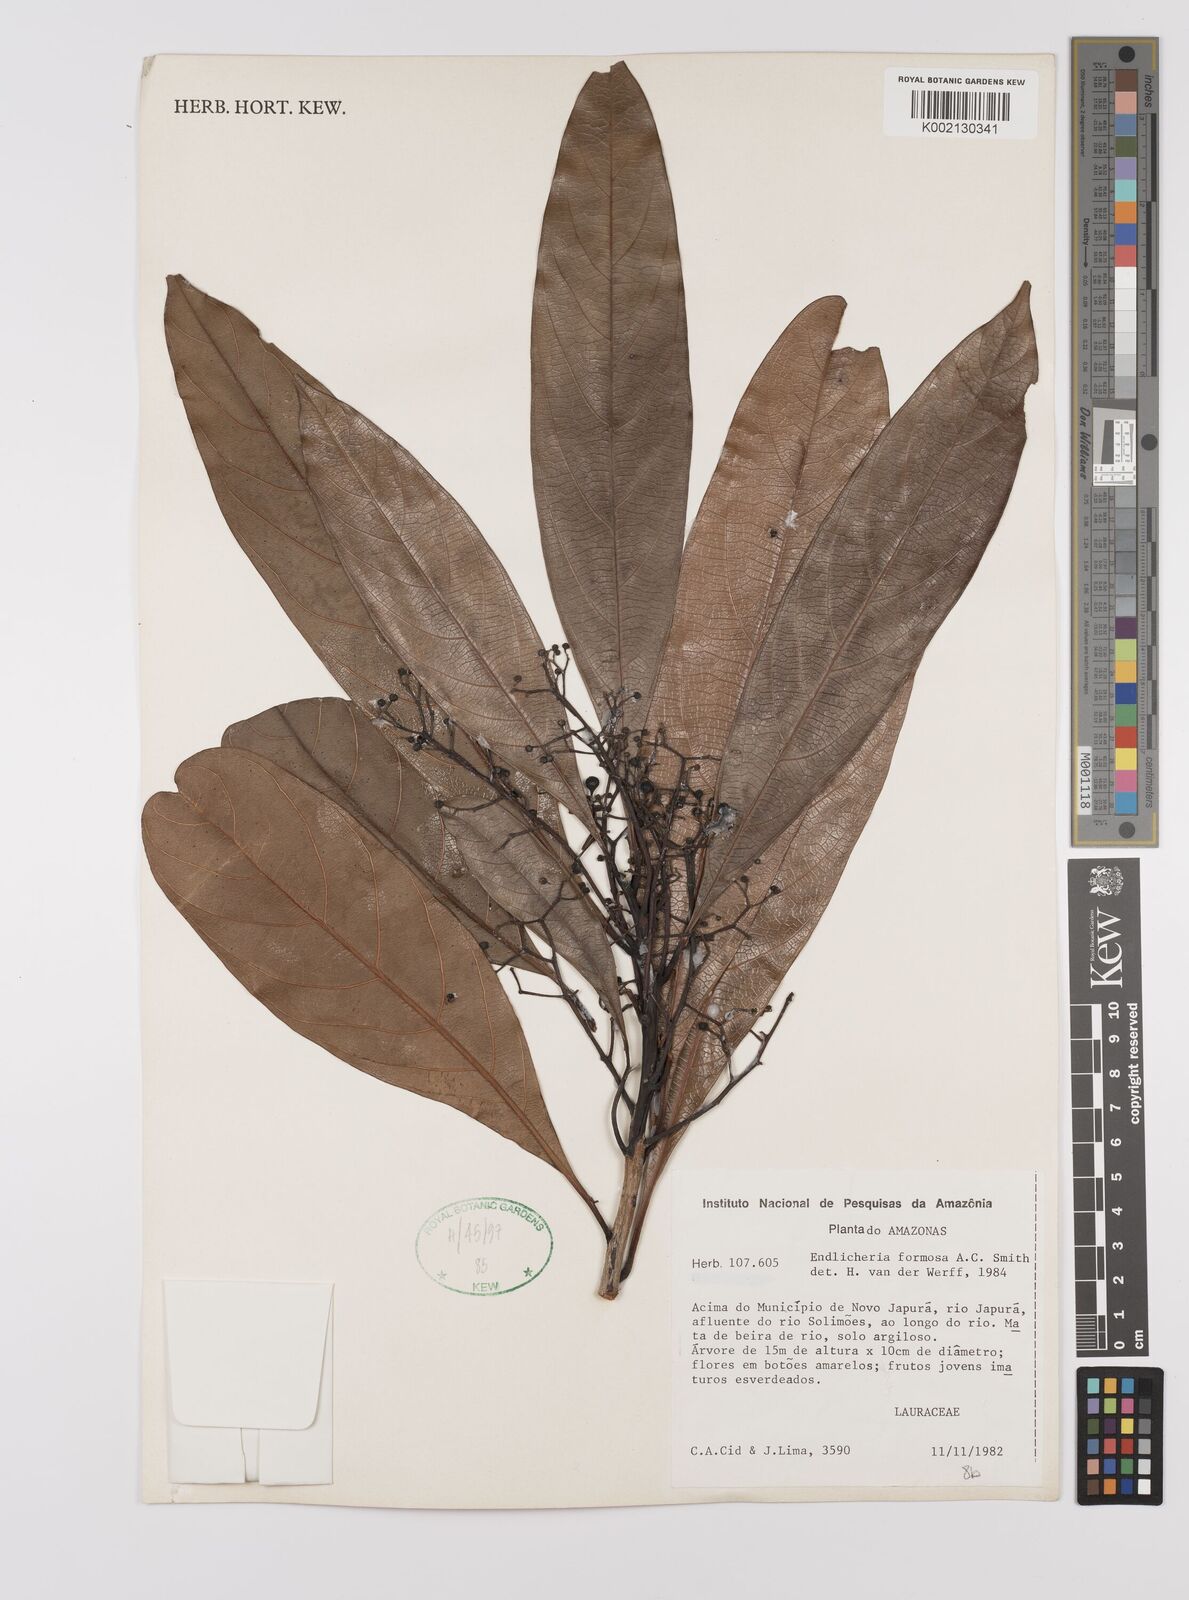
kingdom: Plantae
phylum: Tracheophyta
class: Magnoliopsida
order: Laurales
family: Lauraceae
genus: Endlicheria
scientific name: Endlicheria formosa
